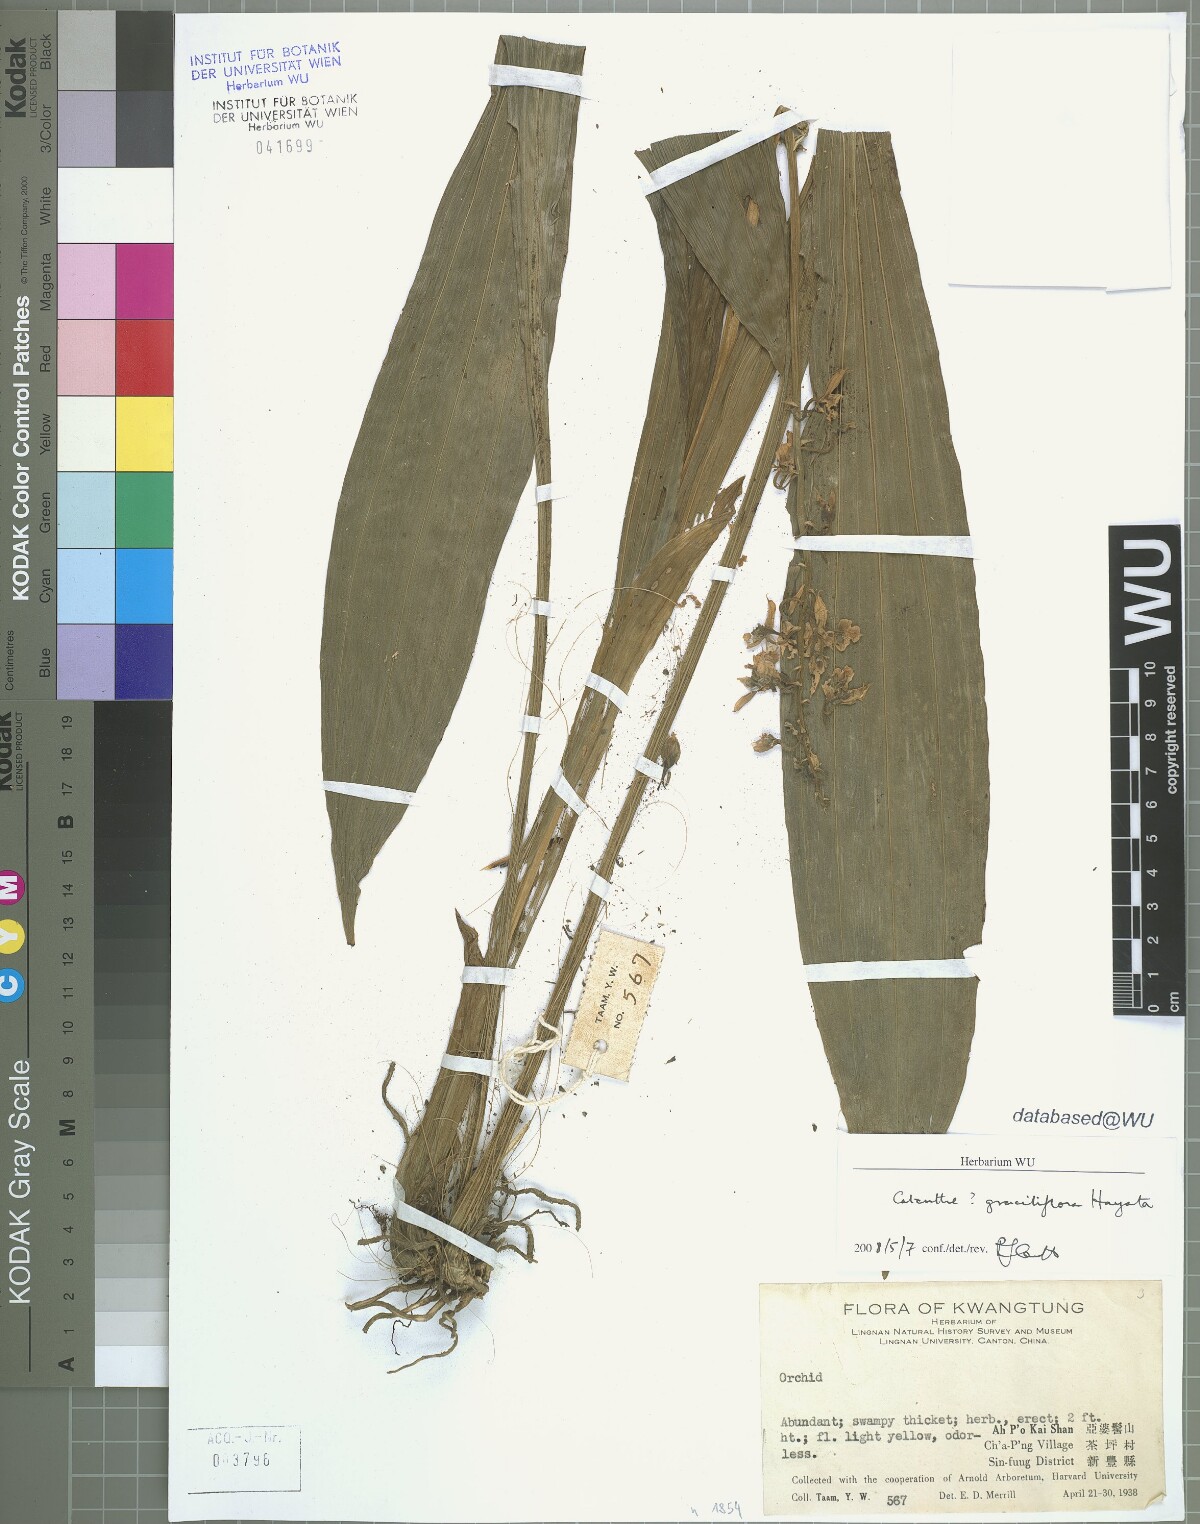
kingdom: Plantae
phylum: Tracheophyta
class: Liliopsida
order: Asparagales
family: Orchidaceae
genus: Calanthe
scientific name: Calanthe graciliflora
